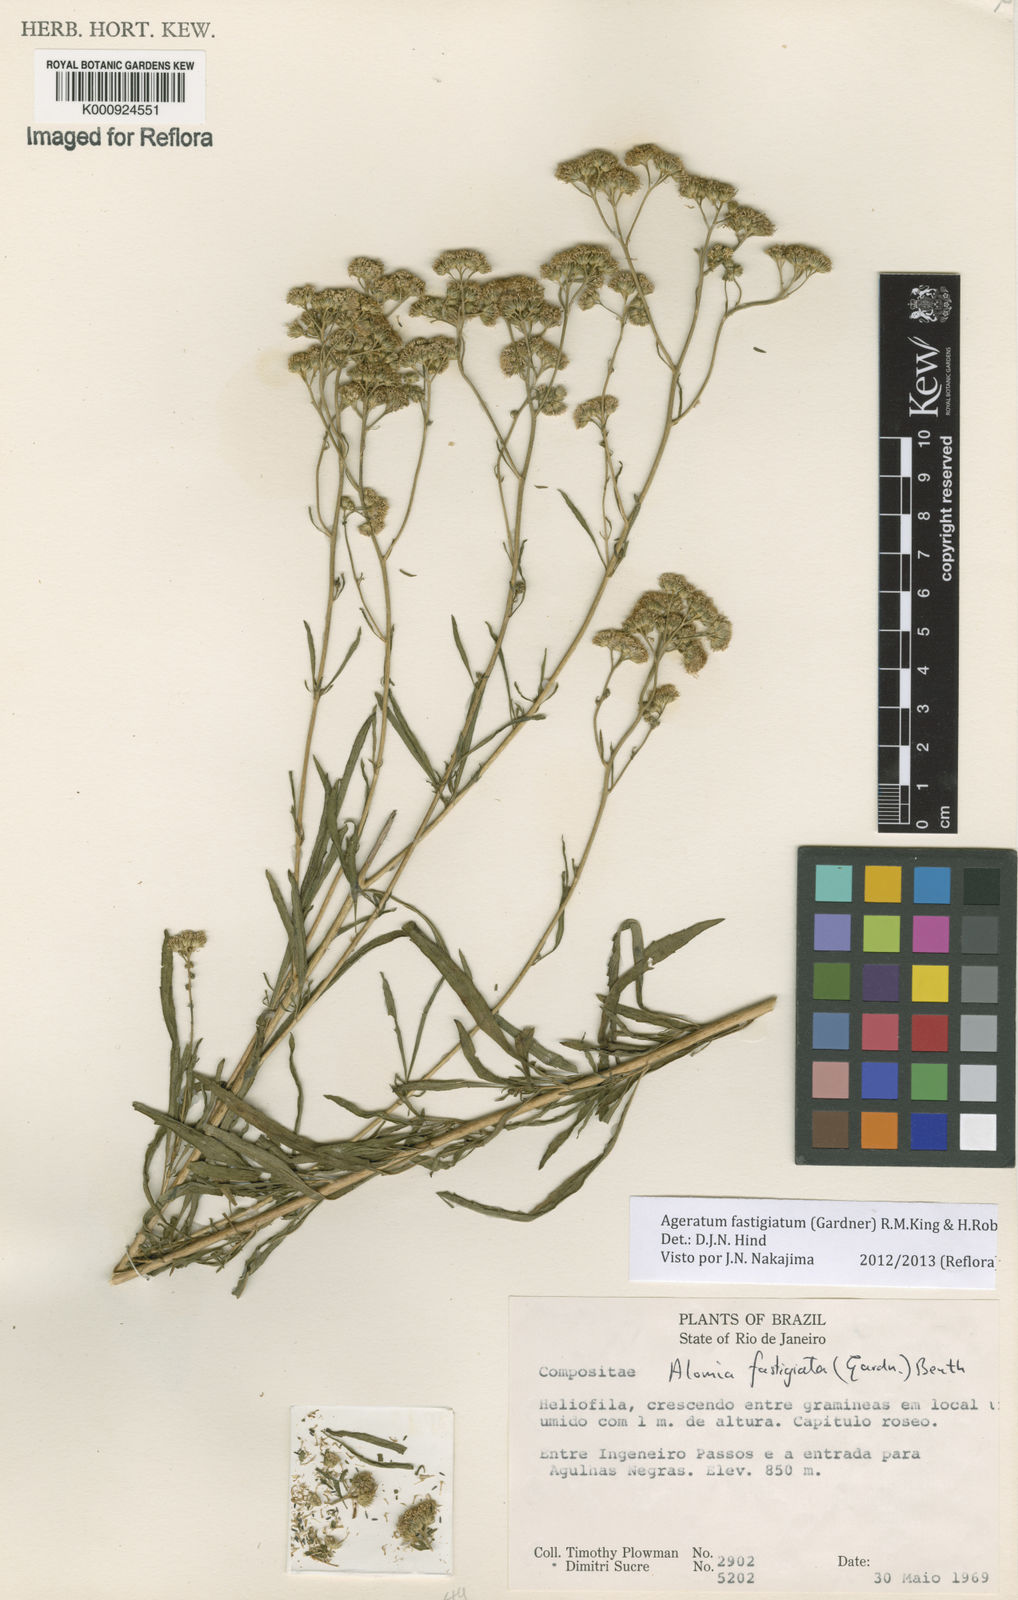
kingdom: Plantae
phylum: Tracheophyta
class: Magnoliopsida
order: Asterales
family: Asteraceae
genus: Ageratum
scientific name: Ageratum fastigiatum
